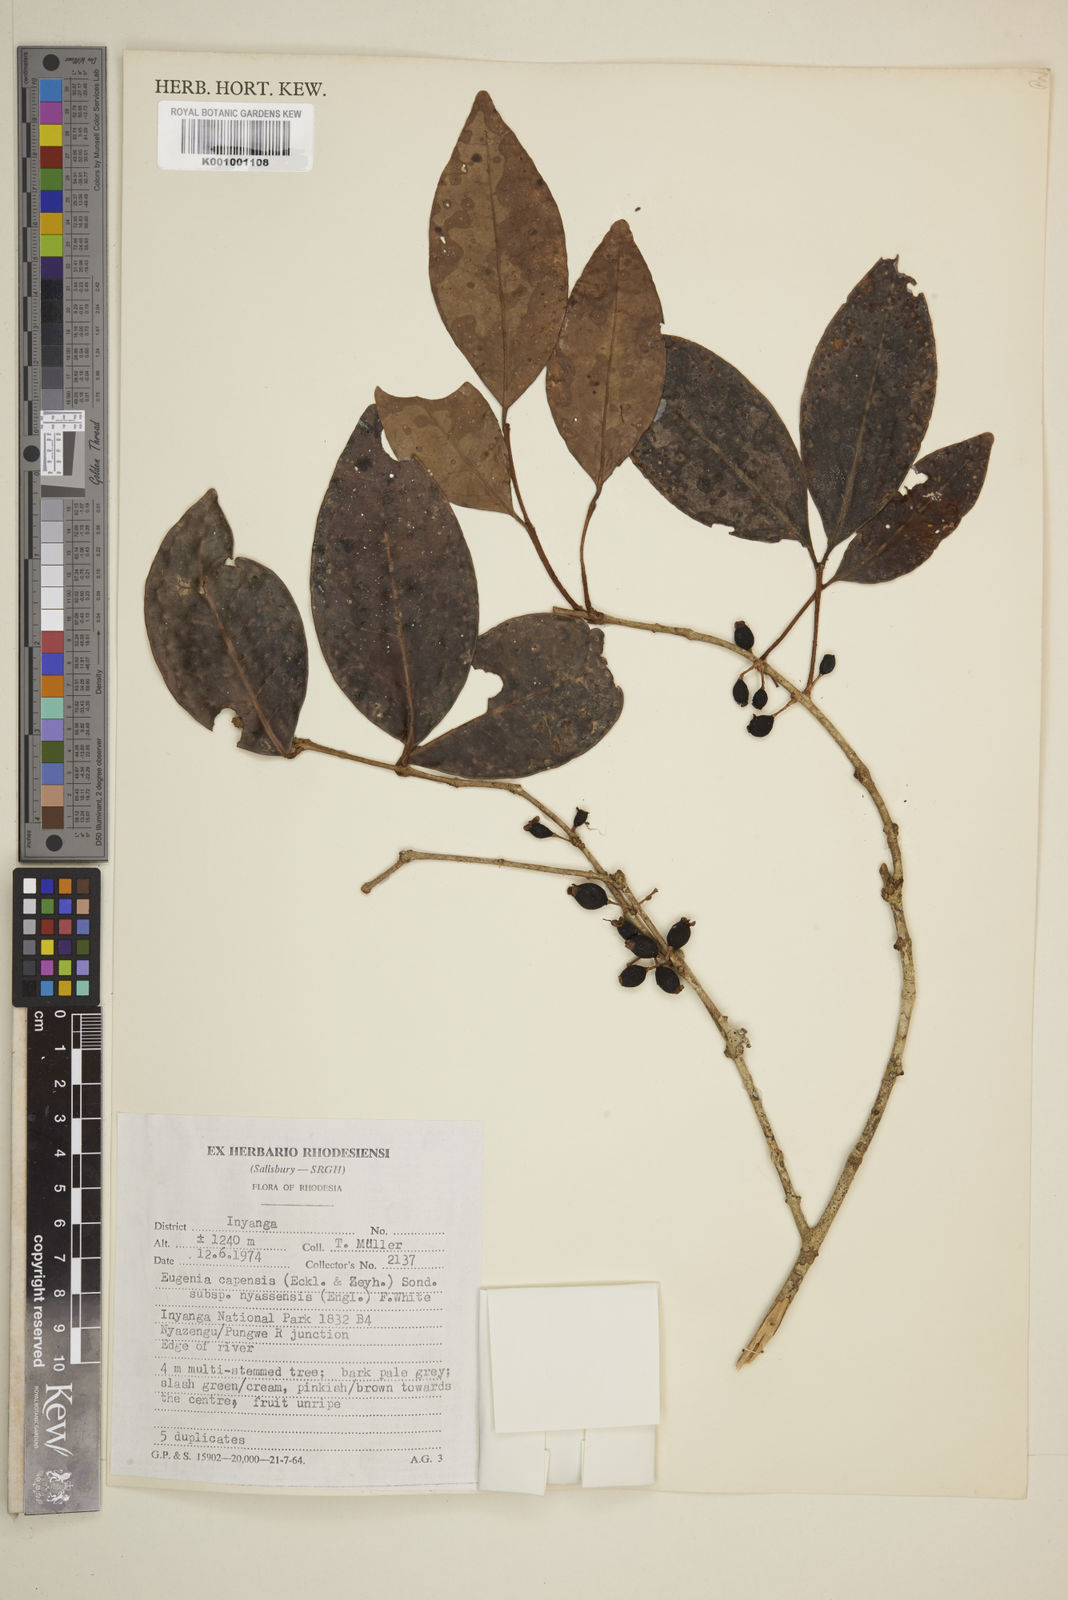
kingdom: Plantae
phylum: Tracheophyta
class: Magnoliopsida
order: Myrtales
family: Myrtaceae
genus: Eugenia
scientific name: Eugenia capensis
